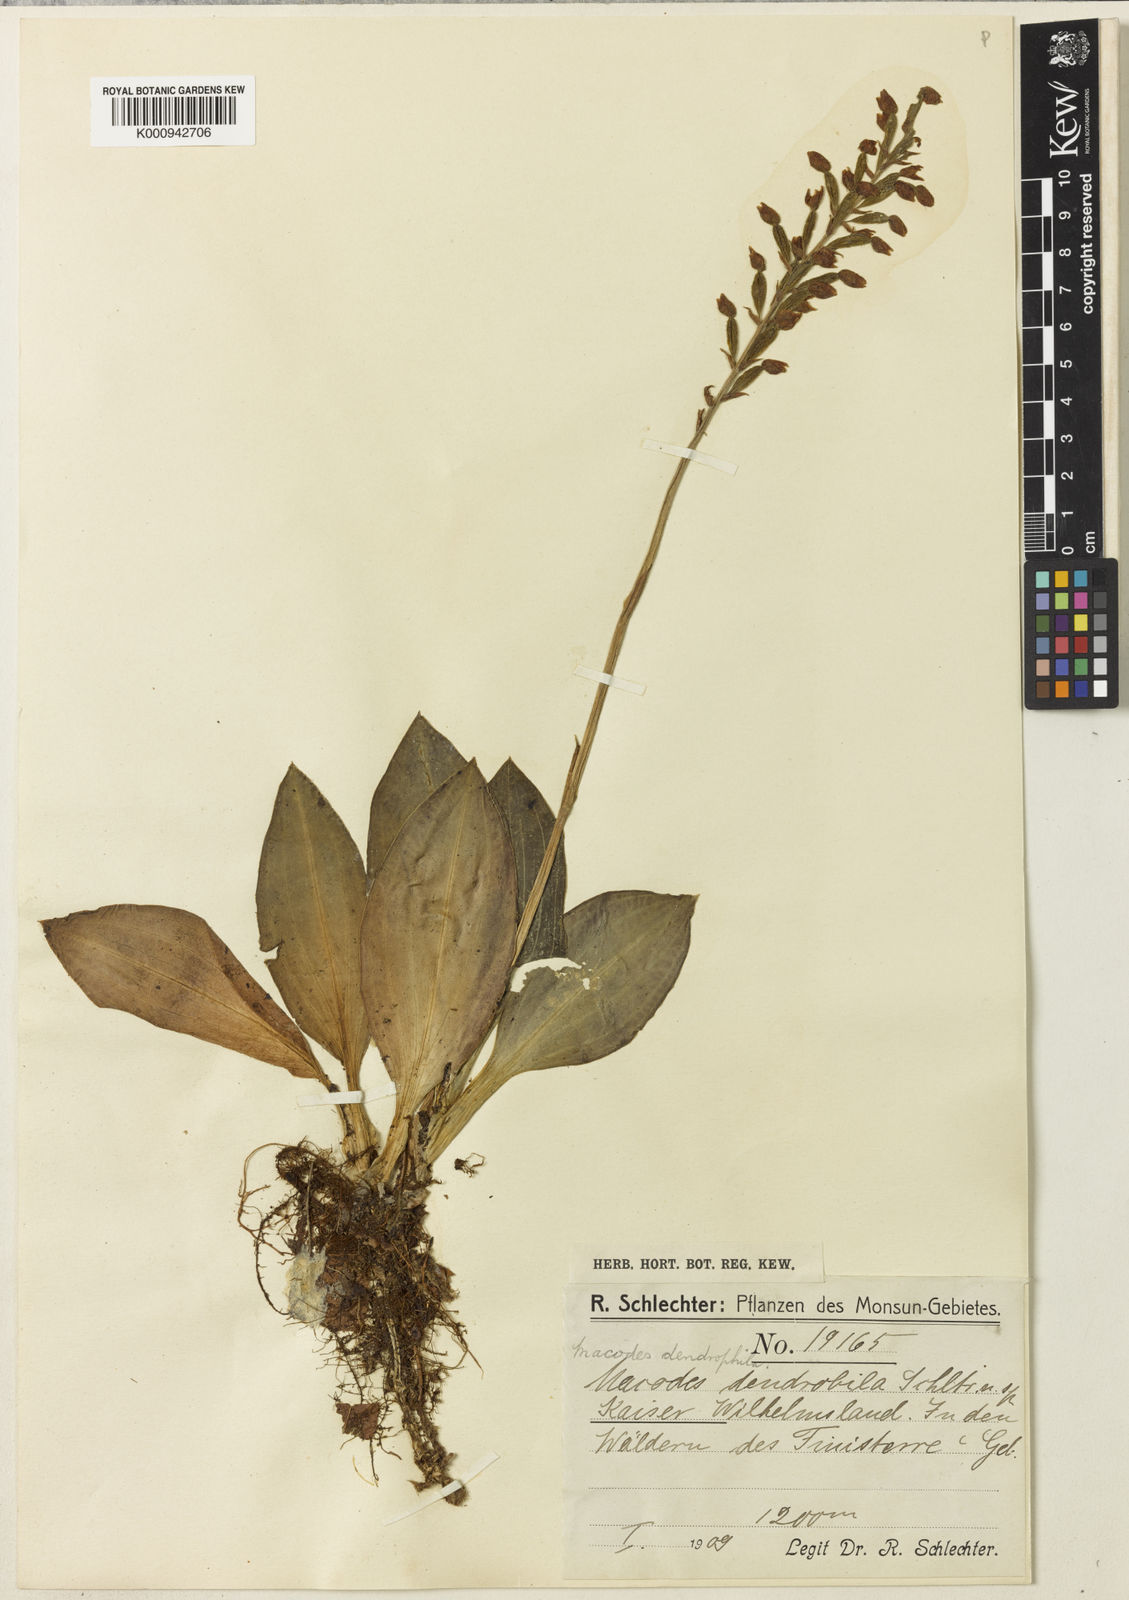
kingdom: Plantae
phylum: Tracheophyta
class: Liliopsida
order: Asparagales
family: Orchidaceae
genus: Macodes
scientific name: Macodes dendrophila
